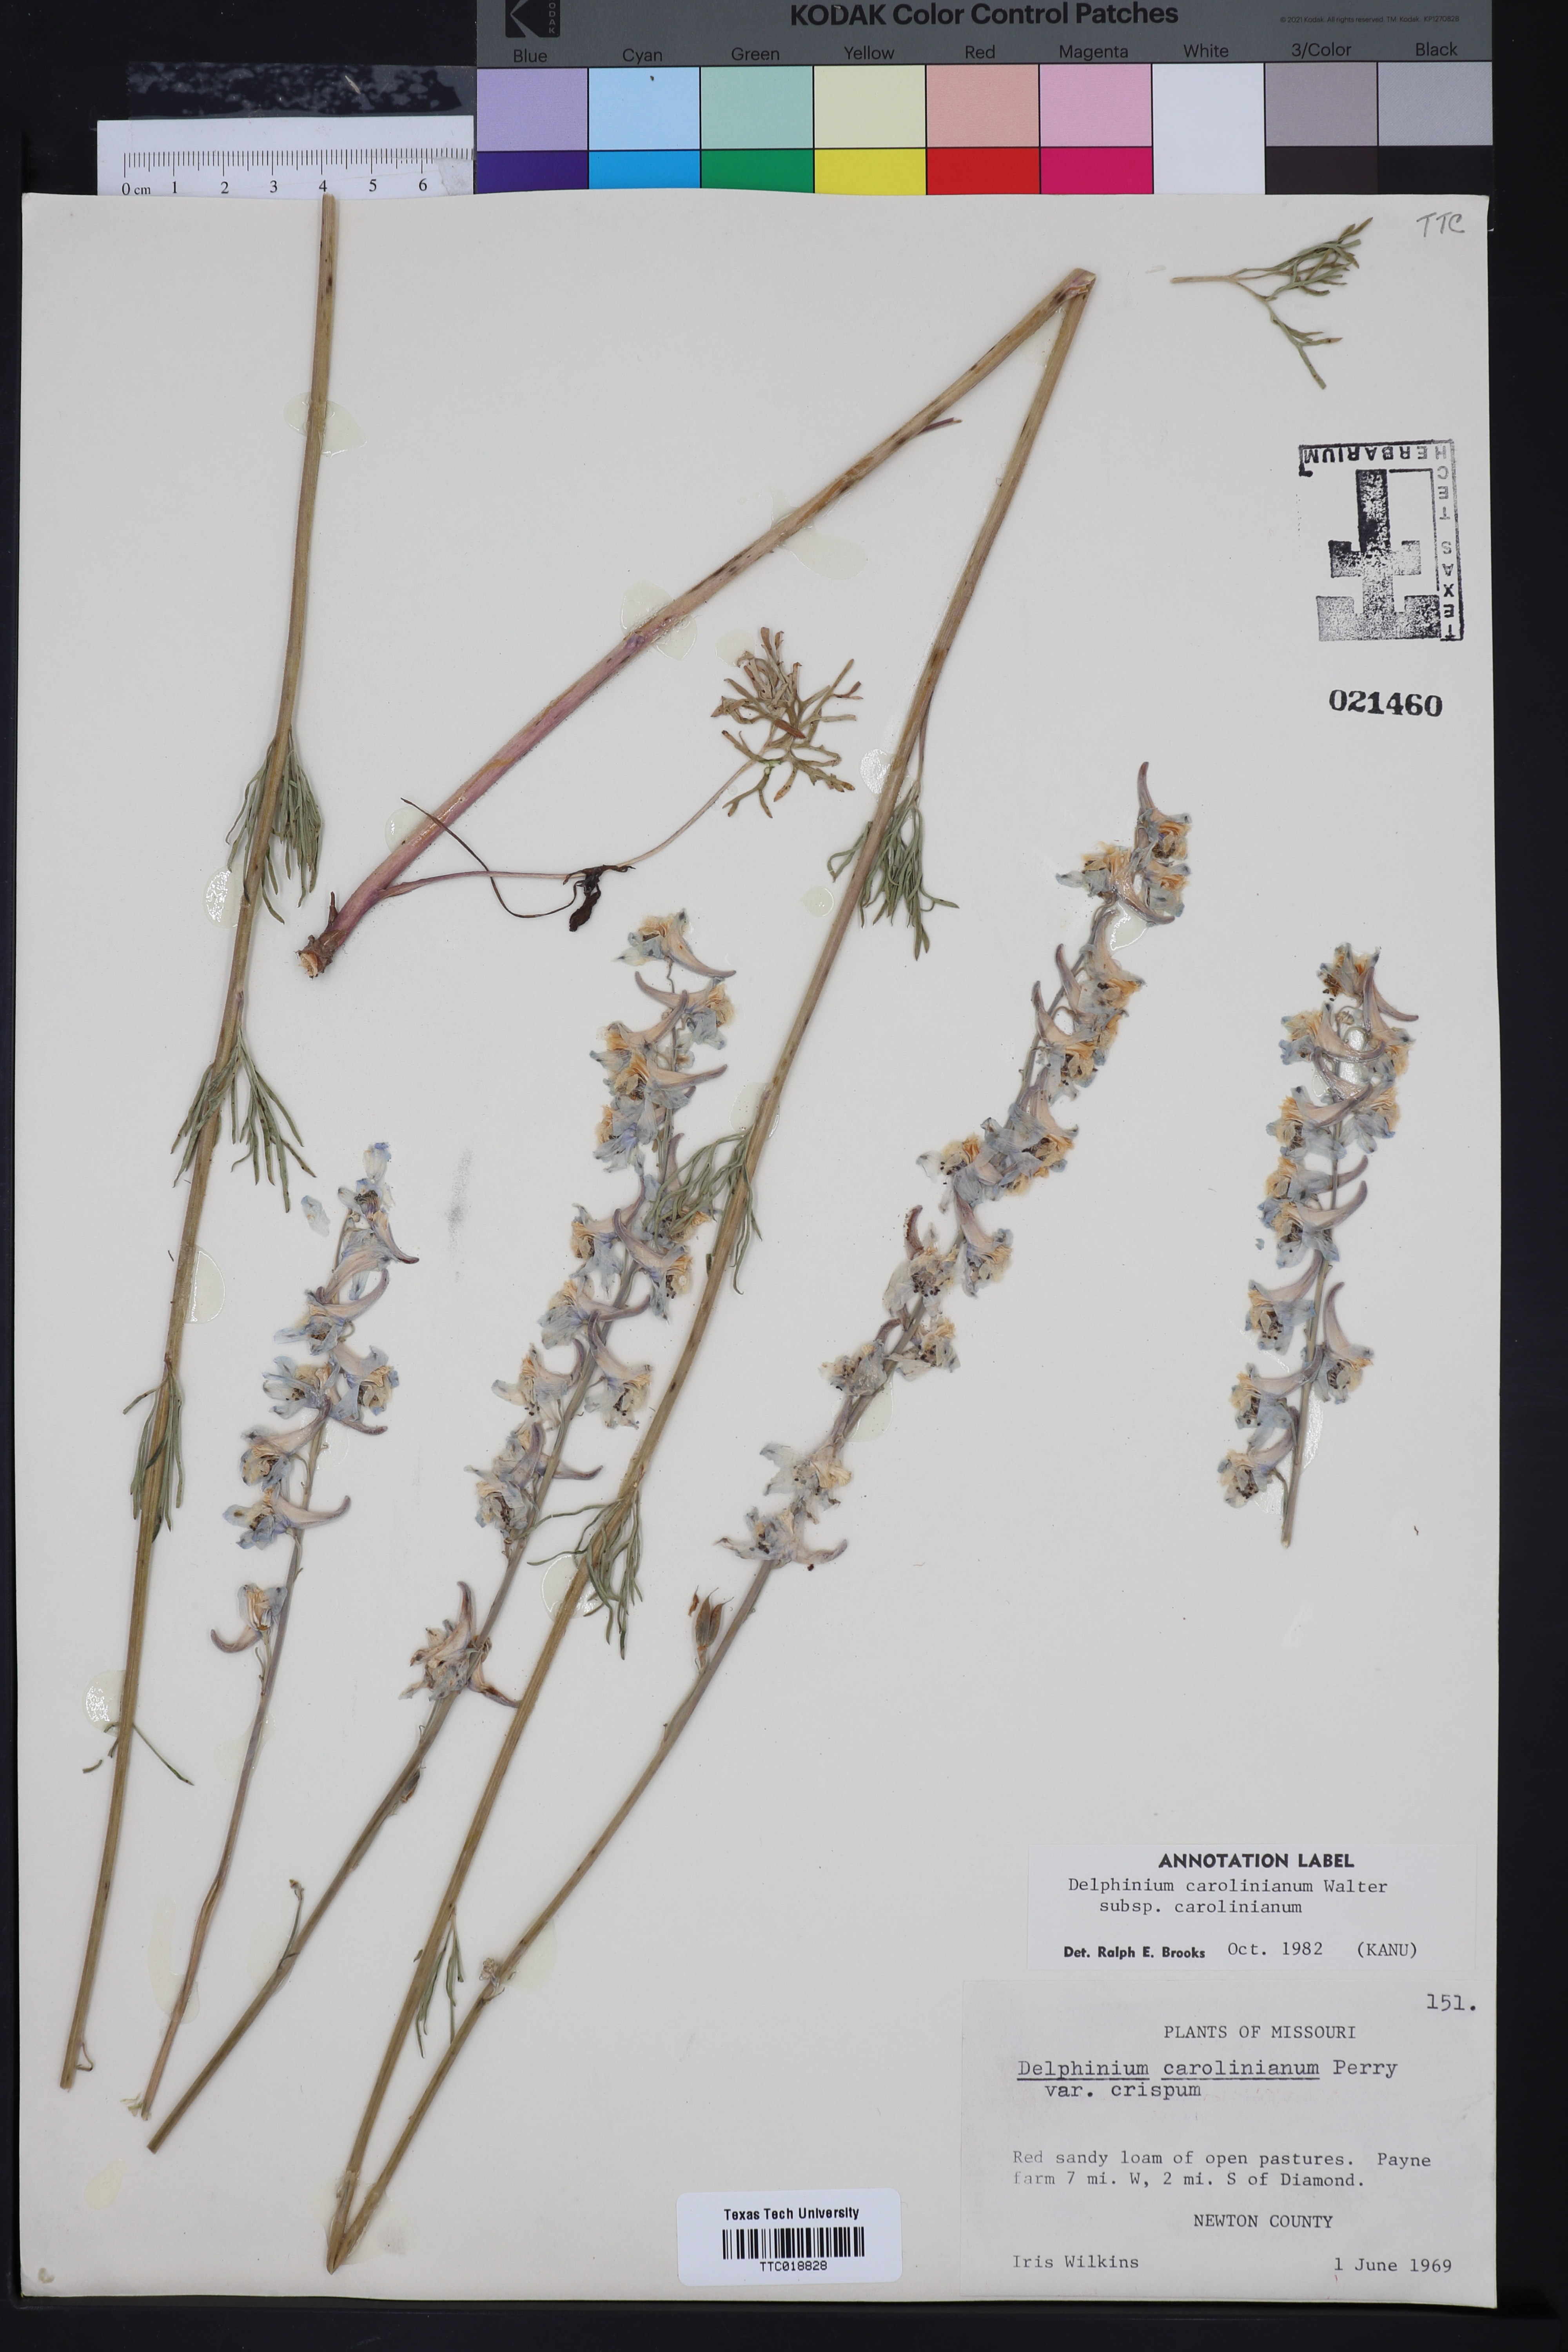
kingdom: Plantae
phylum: Tracheophyta
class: Magnoliopsida
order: Ranunculales
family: Ranunculaceae
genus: Delphinium
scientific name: Delphinium carolinianum
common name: Carolina larkspur
